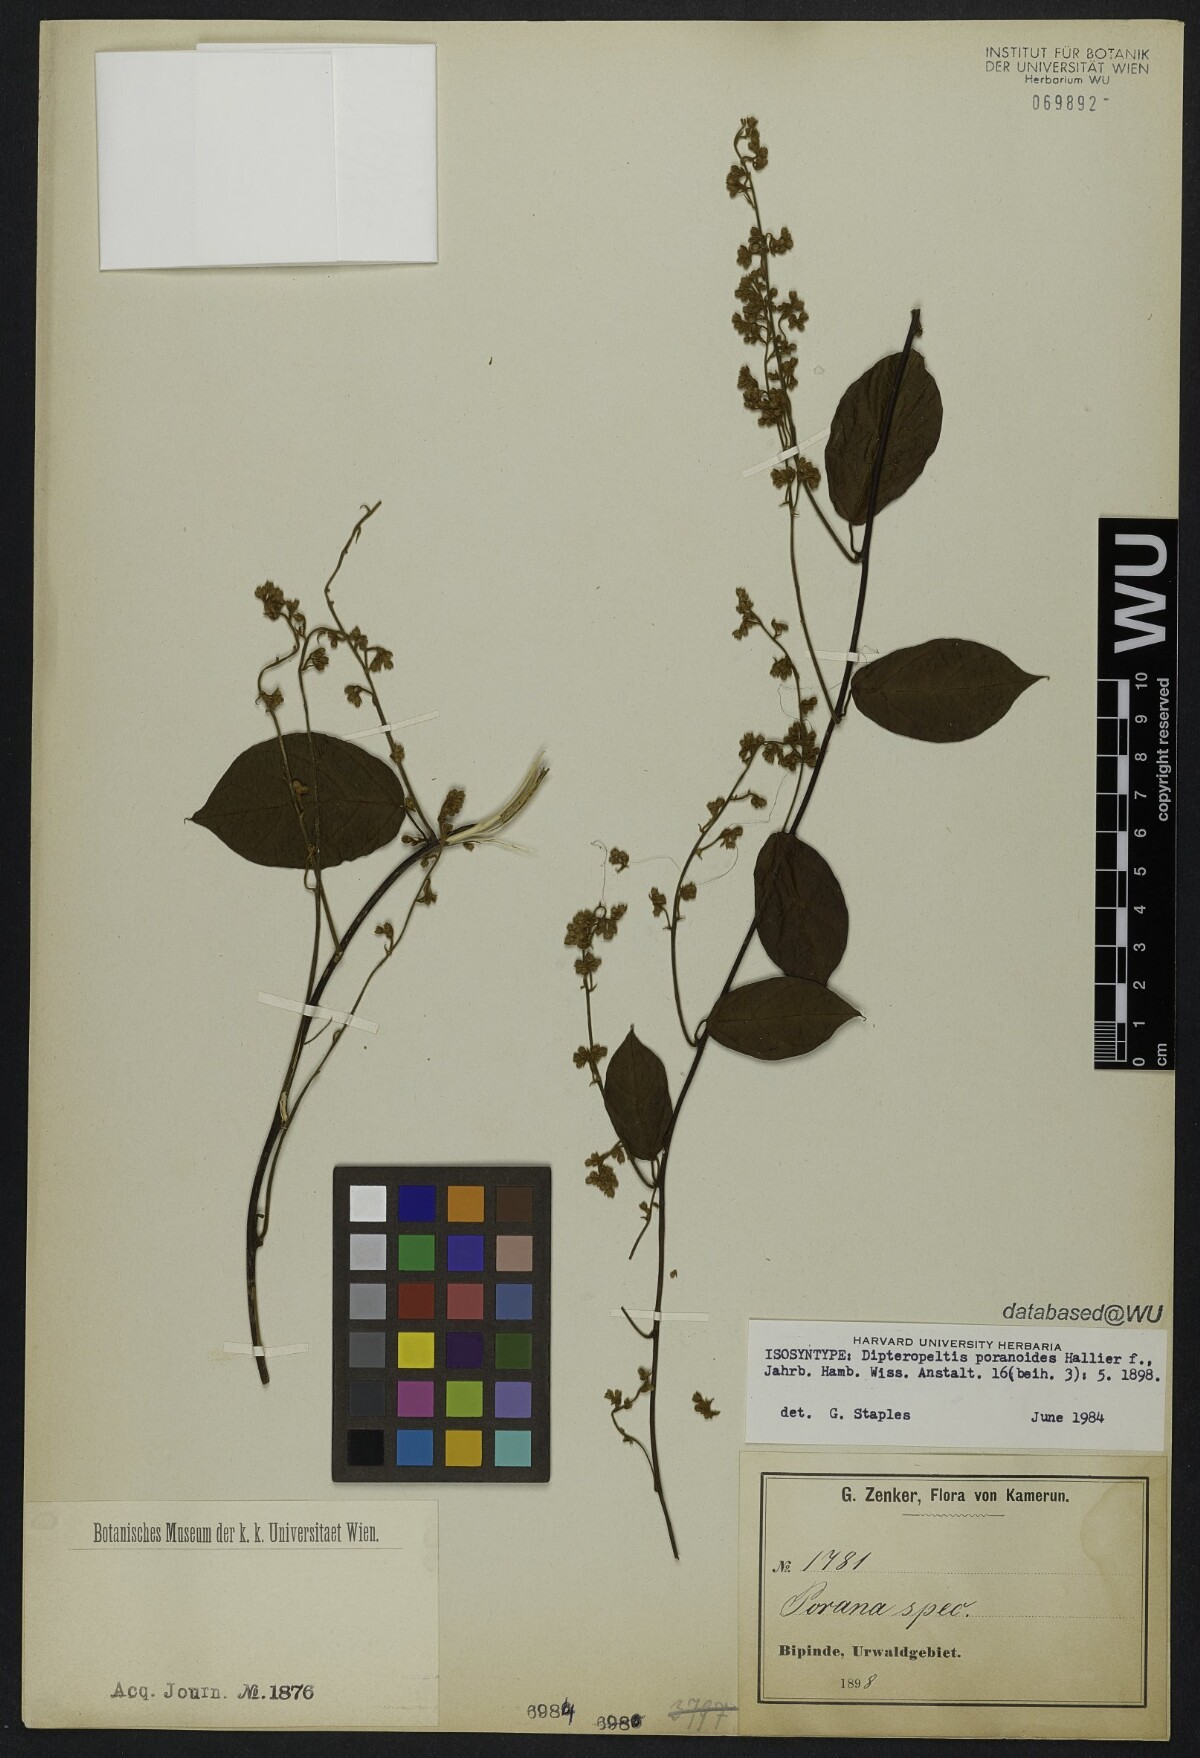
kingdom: Plantae
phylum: Tracheophyta
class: Magnoliopsida
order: Solanales
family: Convolvulaceae
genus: Dipteropeltis
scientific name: Dipteropeltis poranoides
